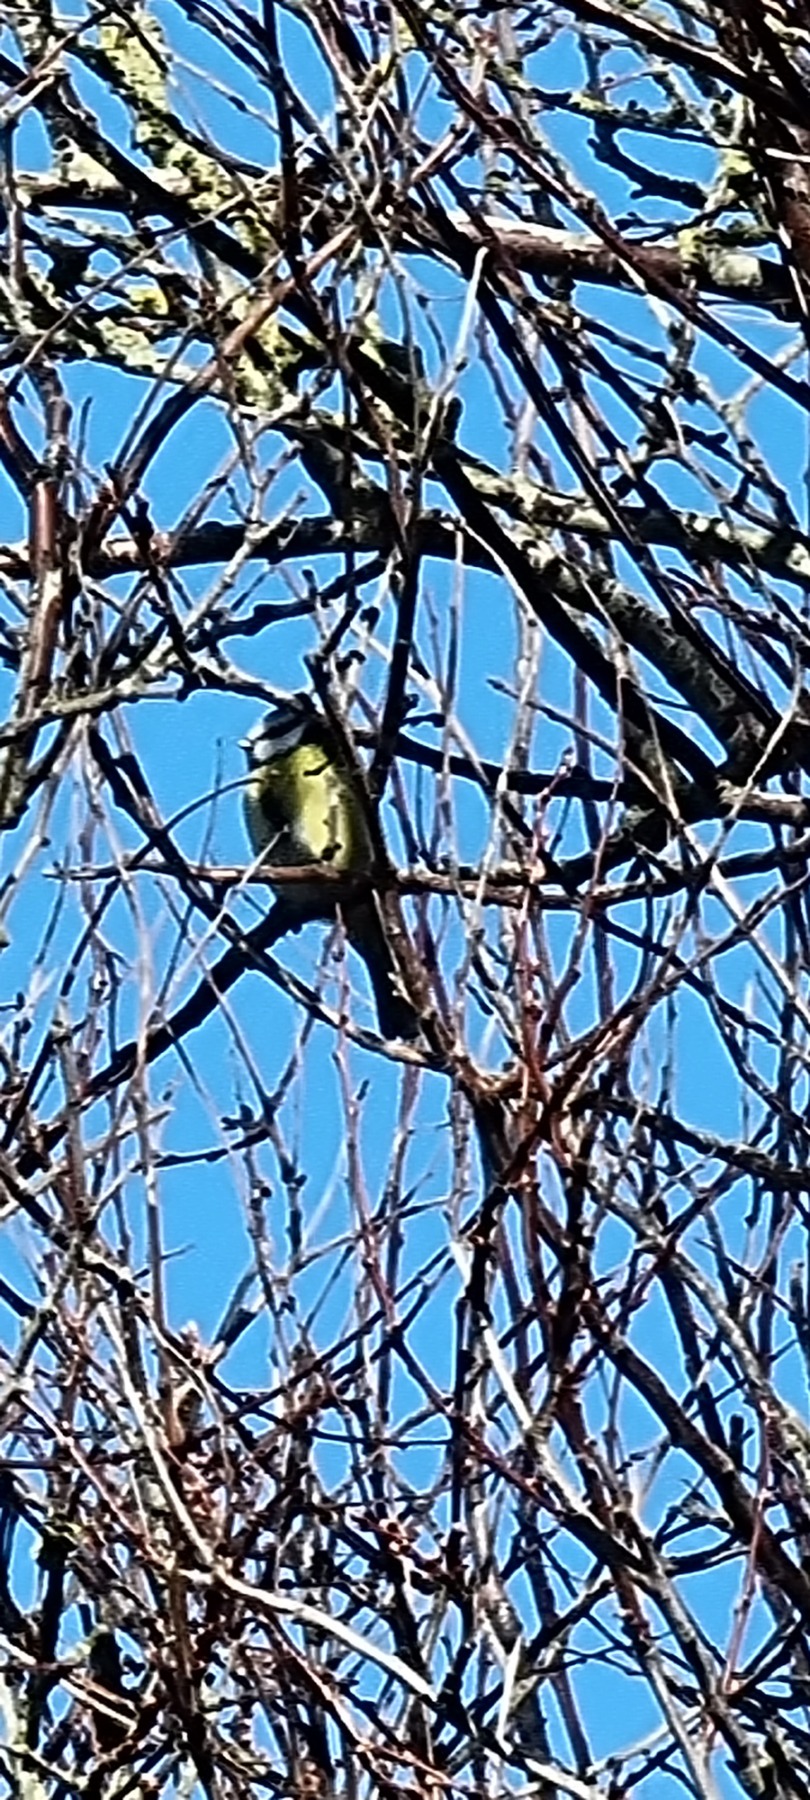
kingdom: Animalia
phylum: Chordata
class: Aves
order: Passeriformes
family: Paridae
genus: Cyanistes
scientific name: Cyanistes caeruleus
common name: Blåmejse
